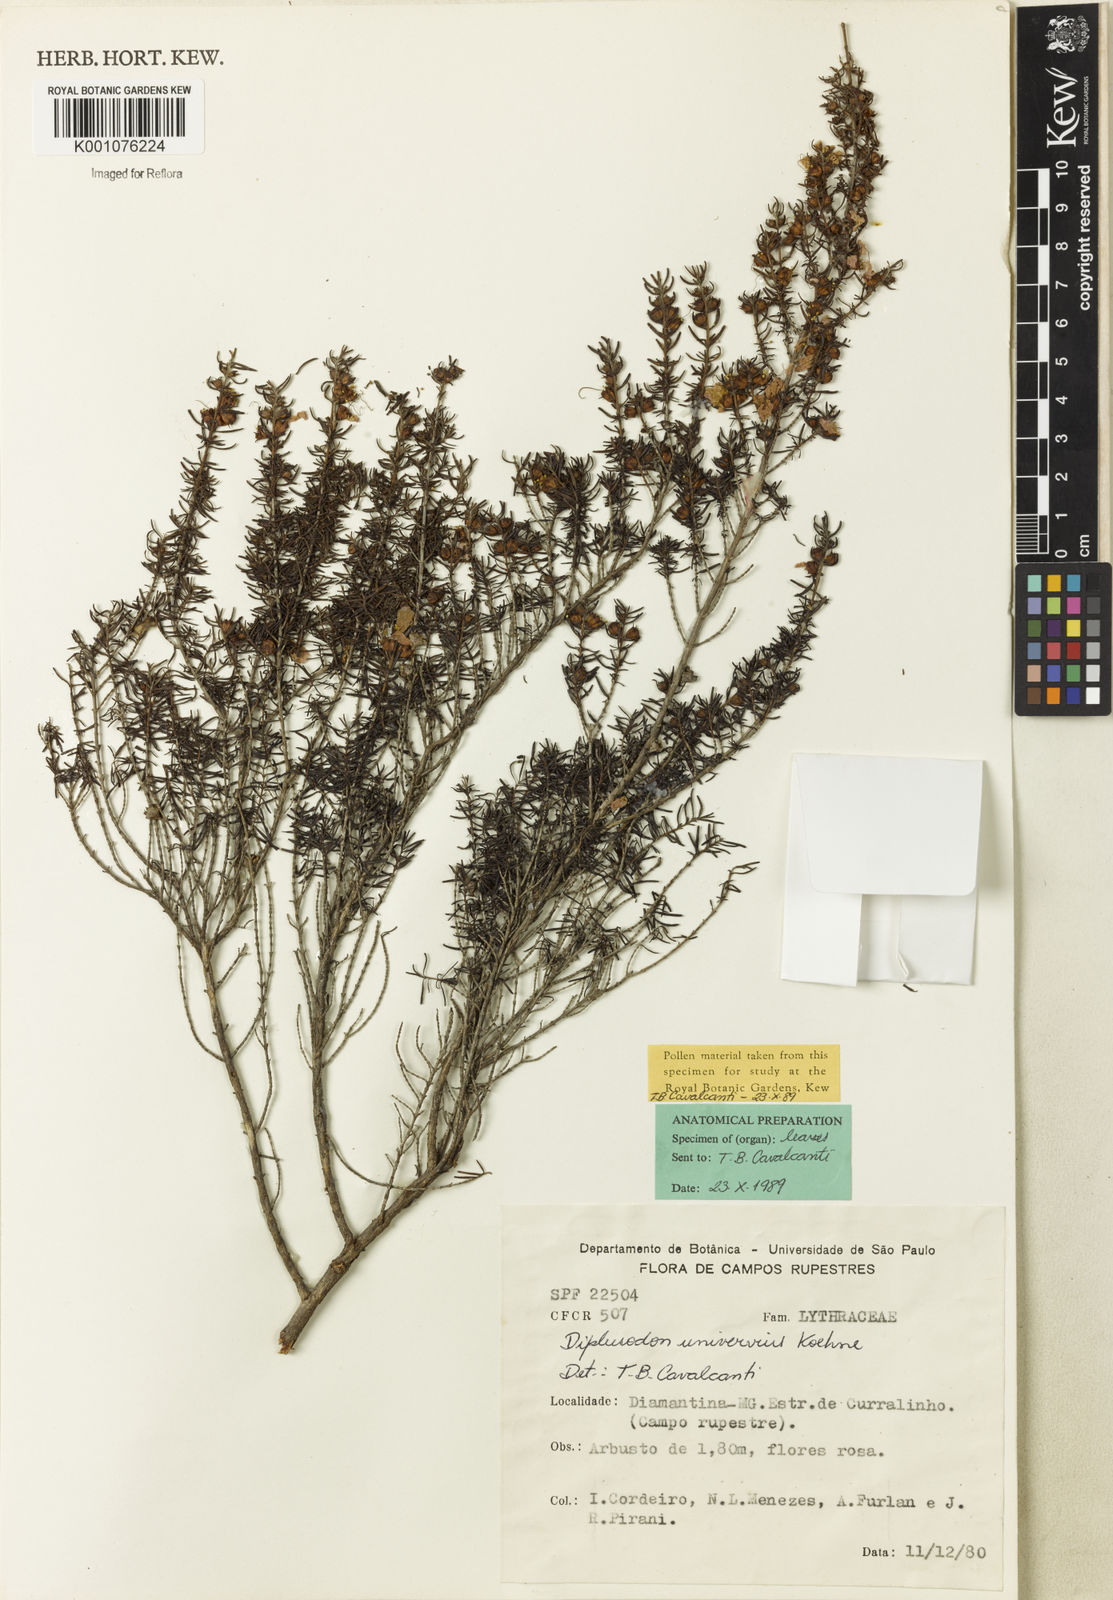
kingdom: Plantae
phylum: Tracheophyta
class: Magnoliopsida
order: Myrtales
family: Lythraceae
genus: Diplusodon
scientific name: Diplusodon uninervius
